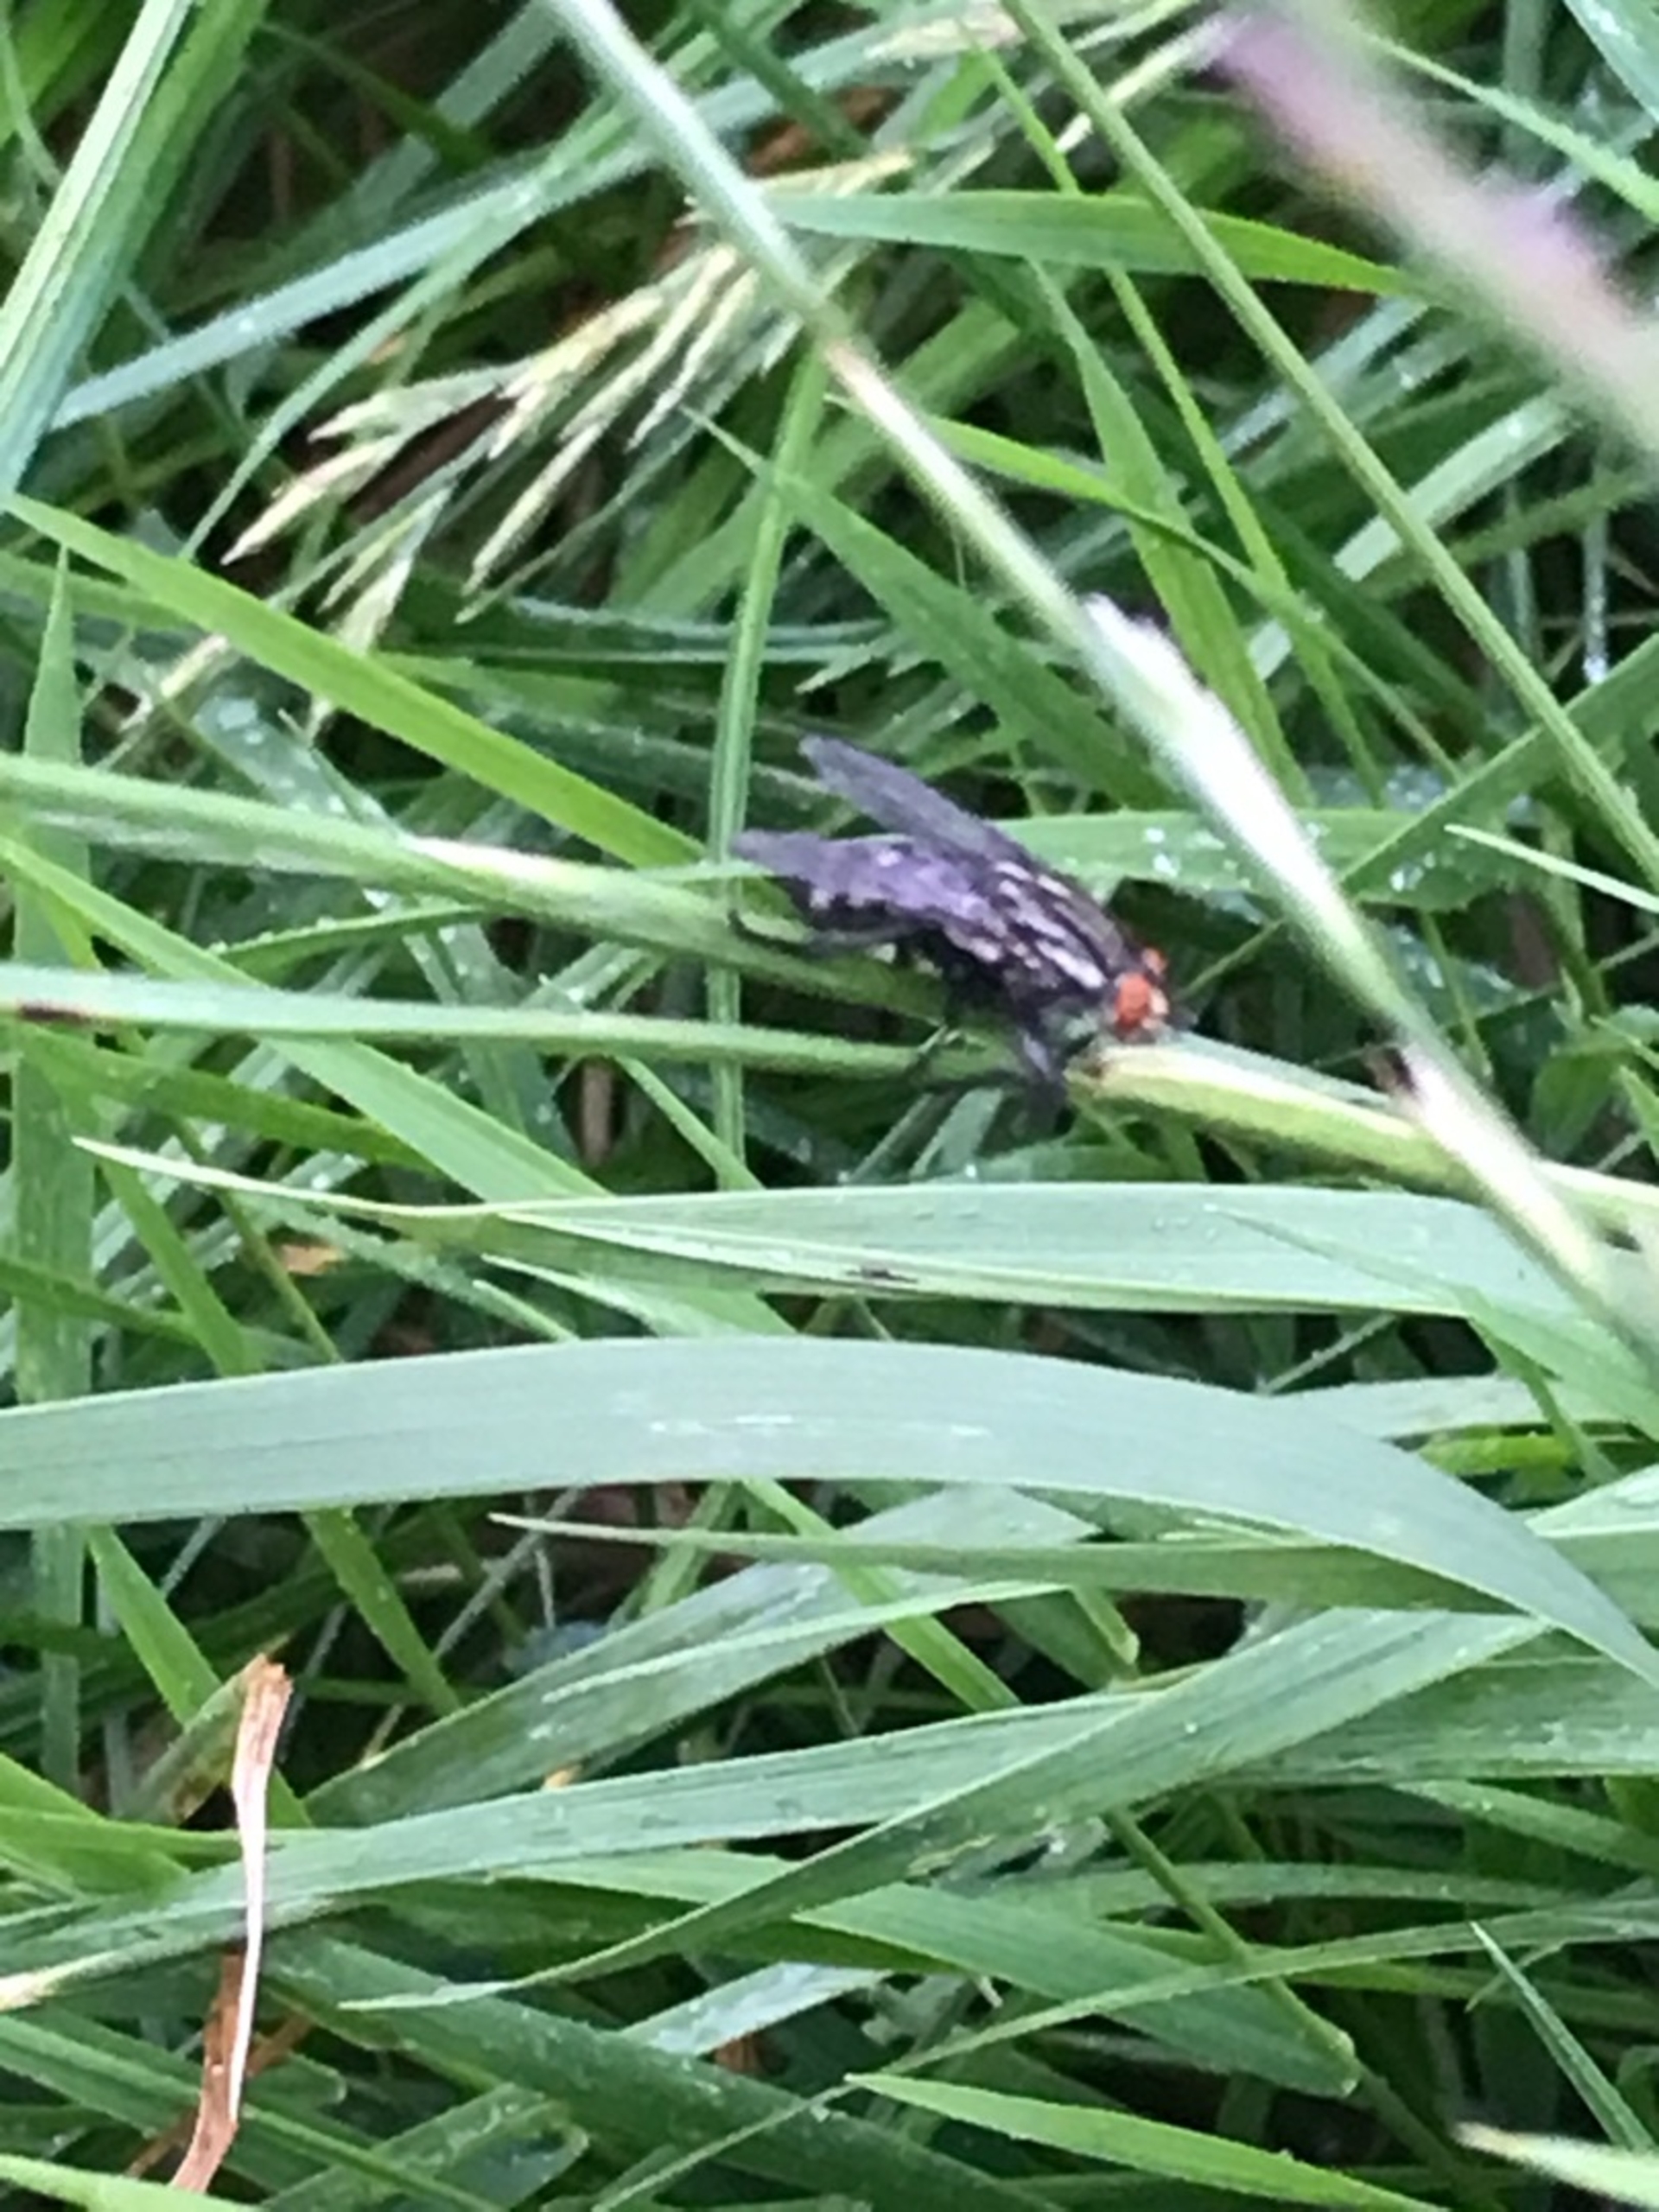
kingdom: Animalia
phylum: Arthropoda
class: Insecta
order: Diptera
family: Sarcophagidae
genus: Sarcophaga
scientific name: Sarcophaga
